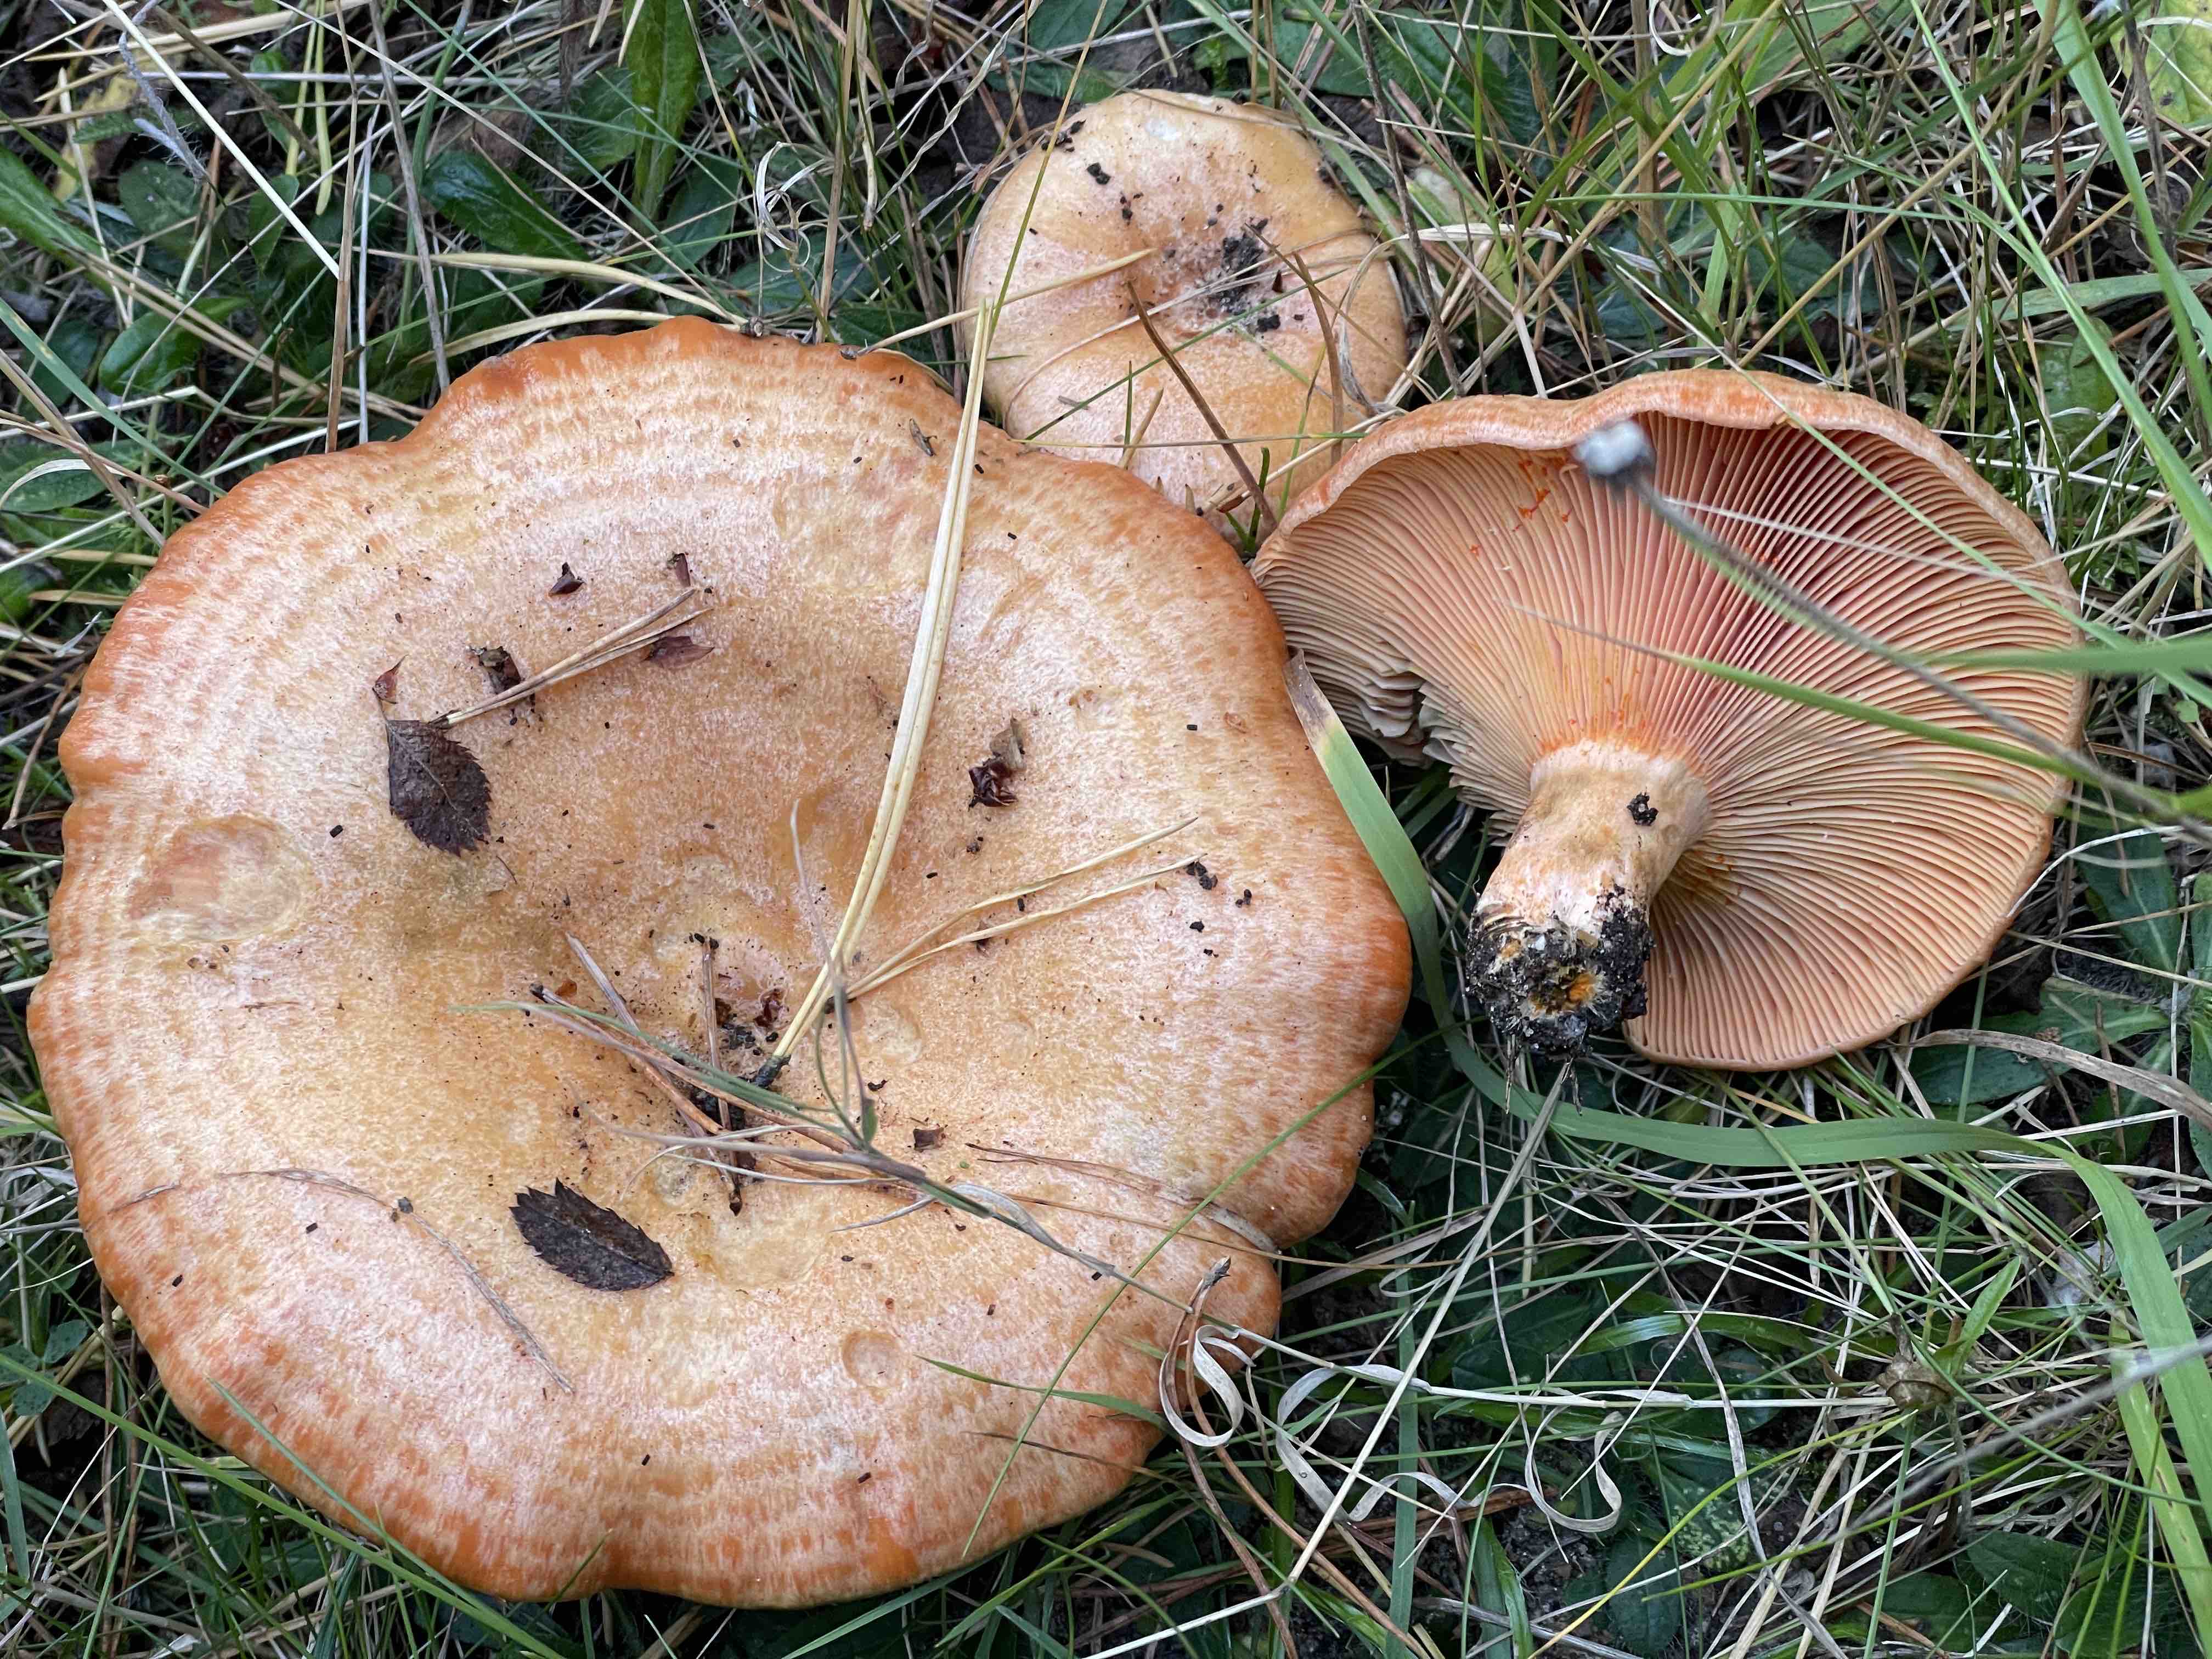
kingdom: Fungi
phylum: Basidiomycota
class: Agaricomycetes
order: Russulales
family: Russulaceae
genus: Lactarius
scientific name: Lactarius deliciosus
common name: velsmagende mælkehat
